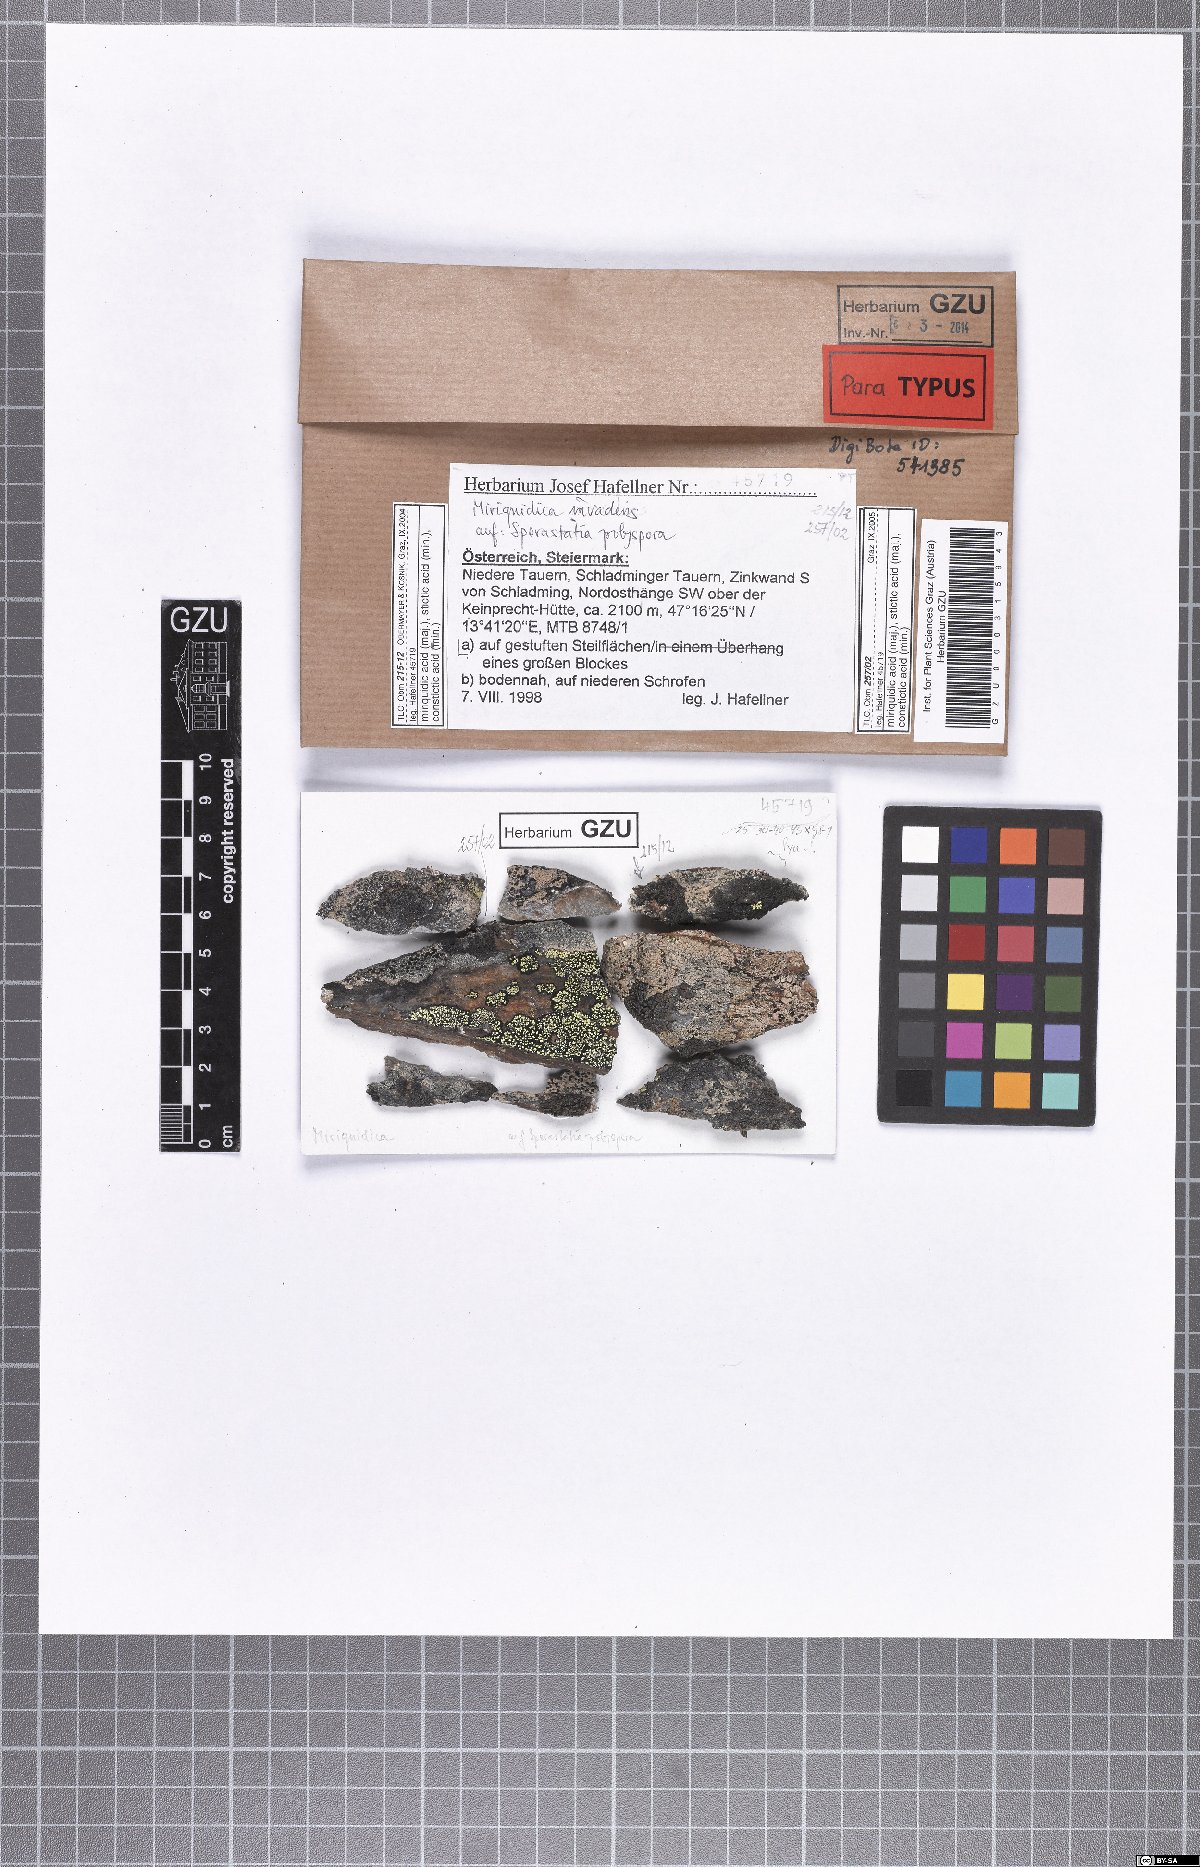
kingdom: Fungi
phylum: Ascomycota
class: Lecanoromycetes
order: Lecanorales
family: Lecanoraceae
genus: Miriquidica
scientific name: Miriquidica invadens
